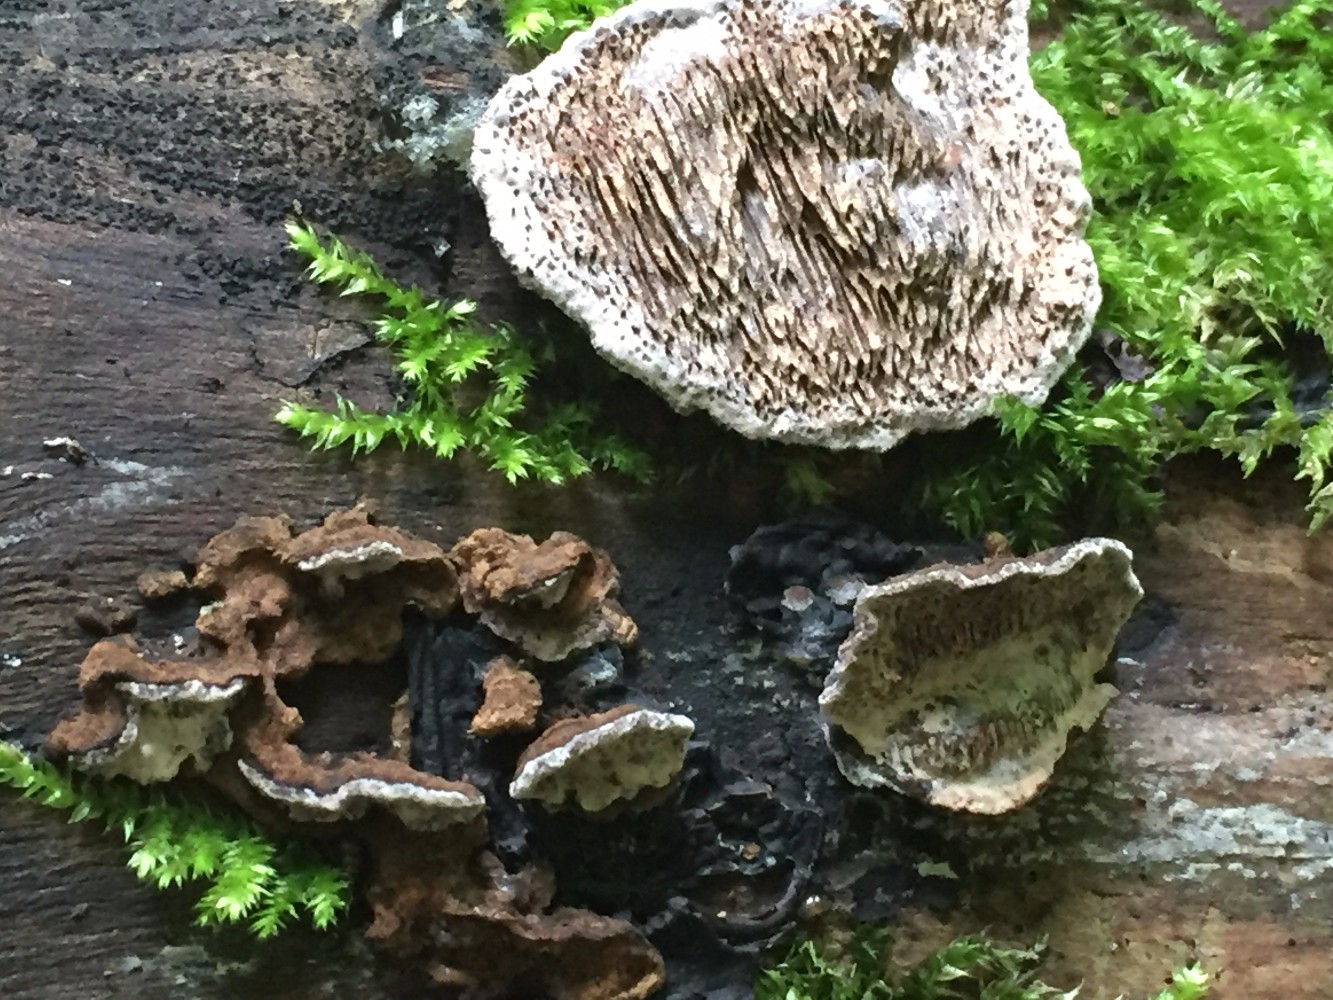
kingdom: Fungi
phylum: Basidiomycota
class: Agaricomycetes
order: Polyporales
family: Polyporaceae
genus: Podofomes
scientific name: Podofomes mollis
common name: blød begporesvamp
